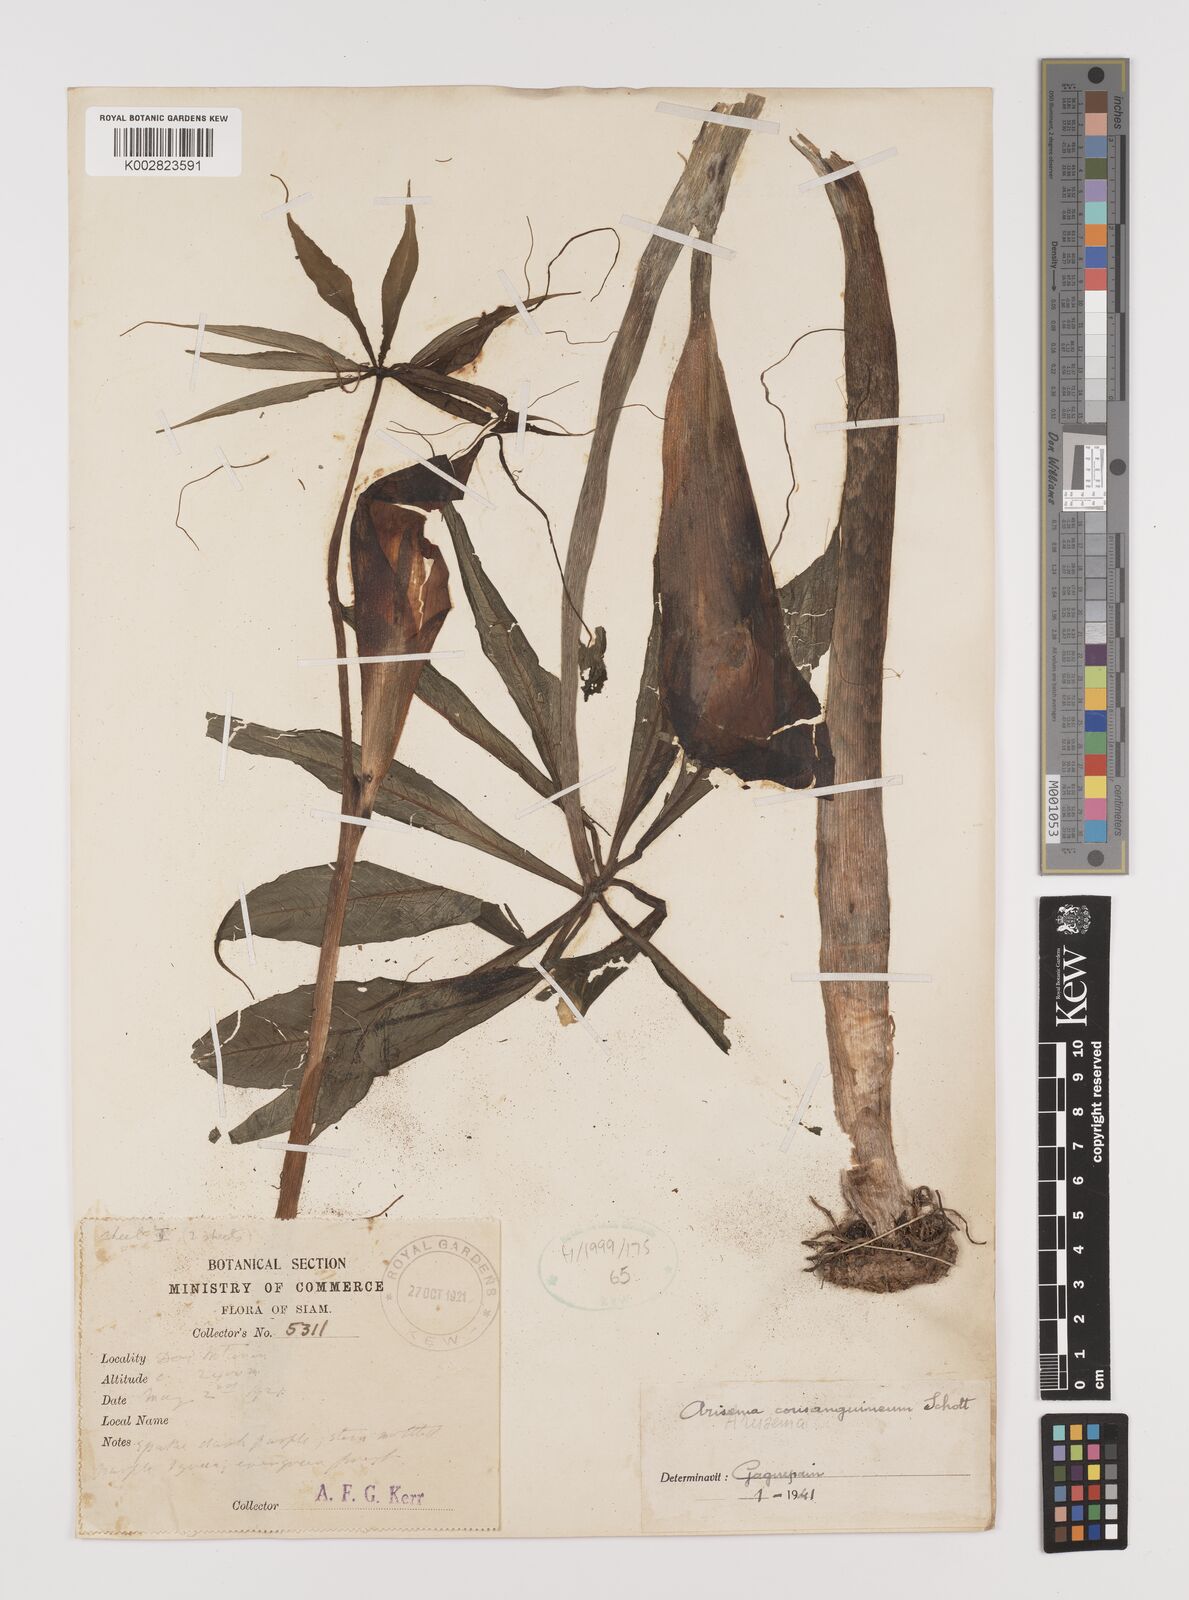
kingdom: Plantae
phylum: Tracheophyta
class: Liliopsida
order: Alismatales
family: Araceae
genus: Arisaema
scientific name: Arisaema consanguineum
